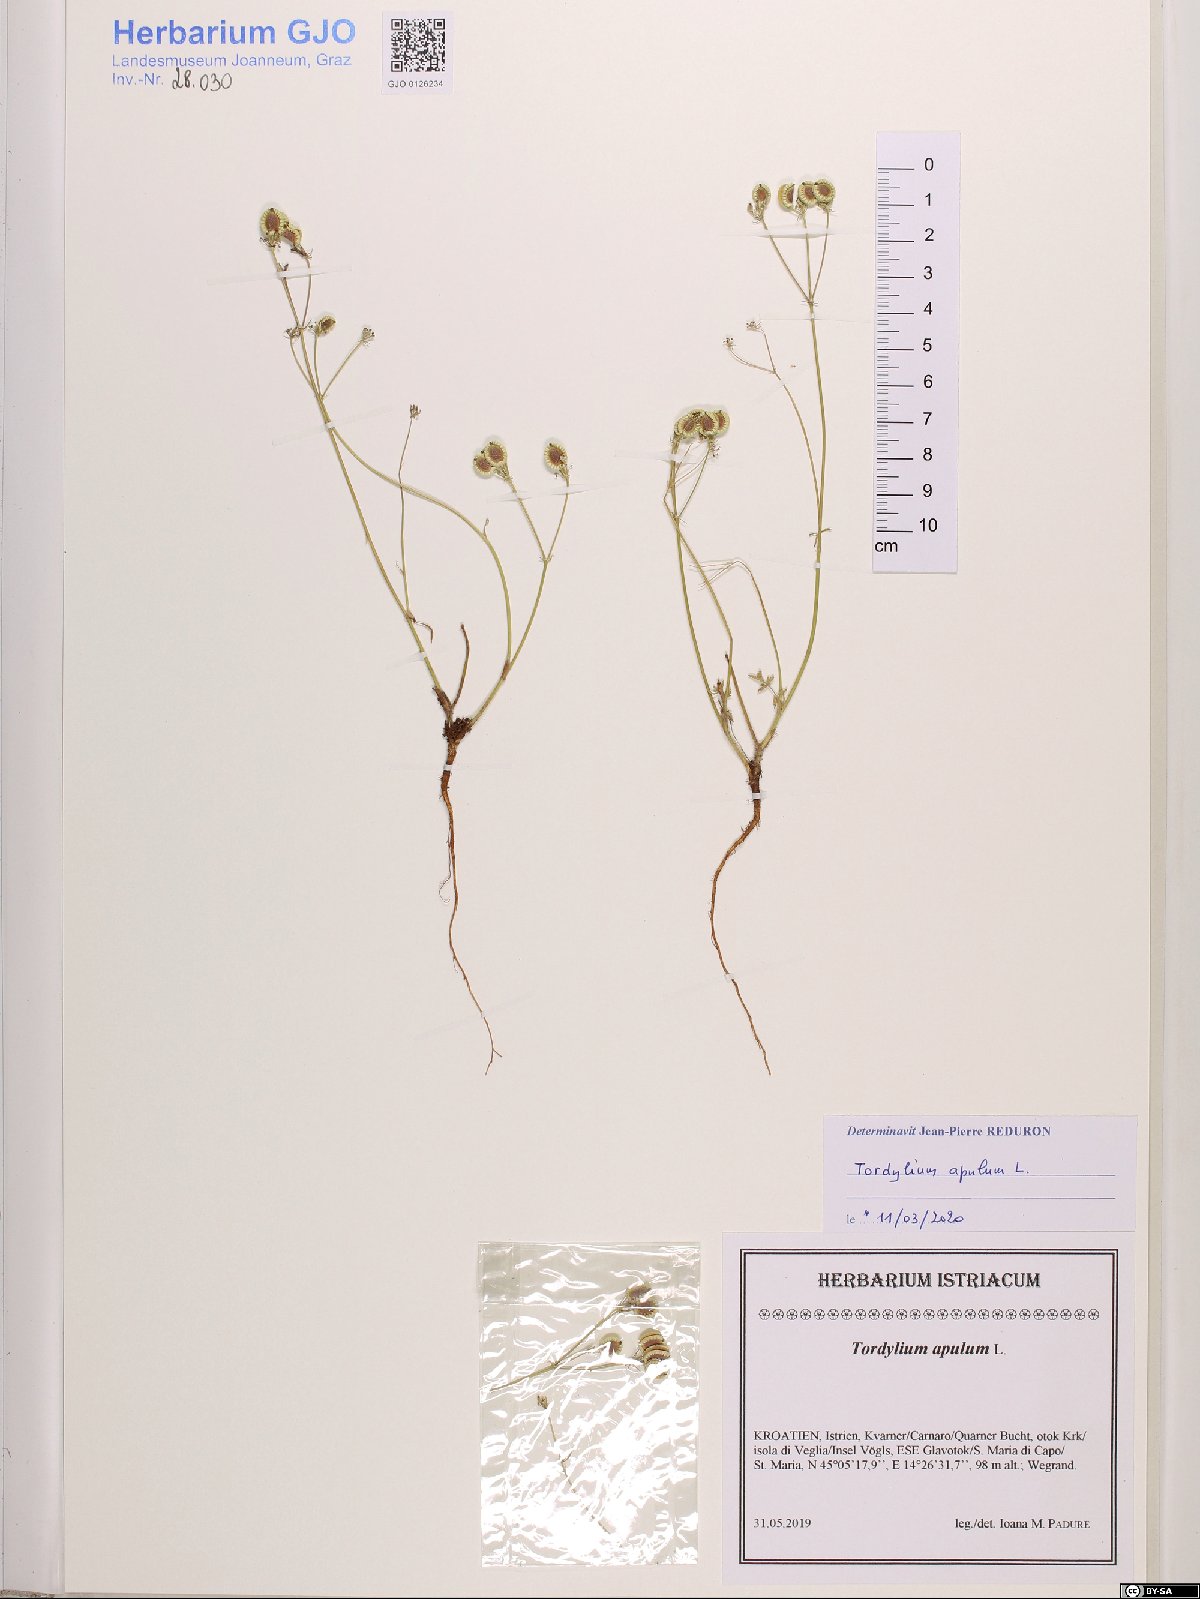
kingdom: Plantae
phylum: Tracheophyta
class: Magnoliopsida
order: Apiales
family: Apiaceae
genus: Tordylium
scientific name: Tordylium apulum
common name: Mediterranean hartwort
